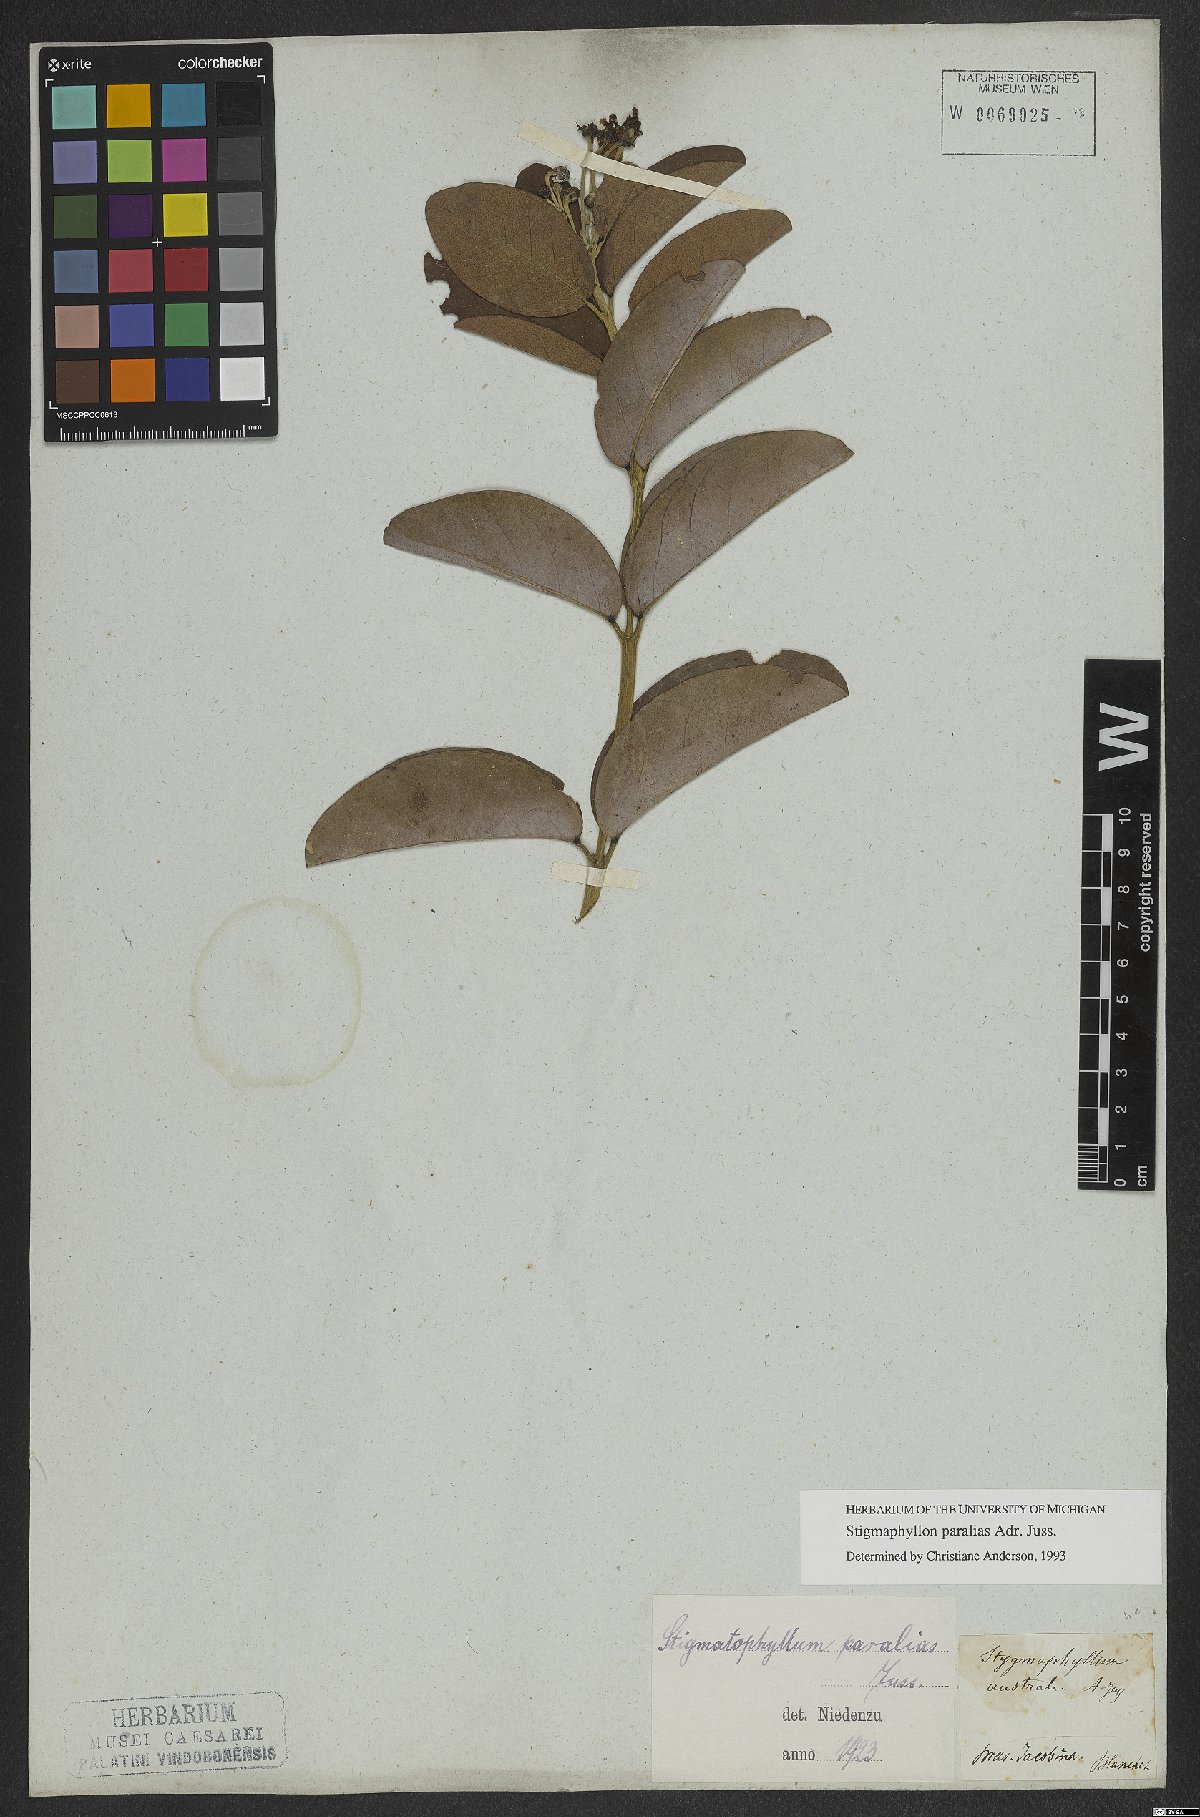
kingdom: Plantae
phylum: Tracheophyta
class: Magnoliopsida
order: Malpighiales
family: Malpighiaceae
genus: Stigmaphyllon
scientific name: Stigmaphyllon paralias
